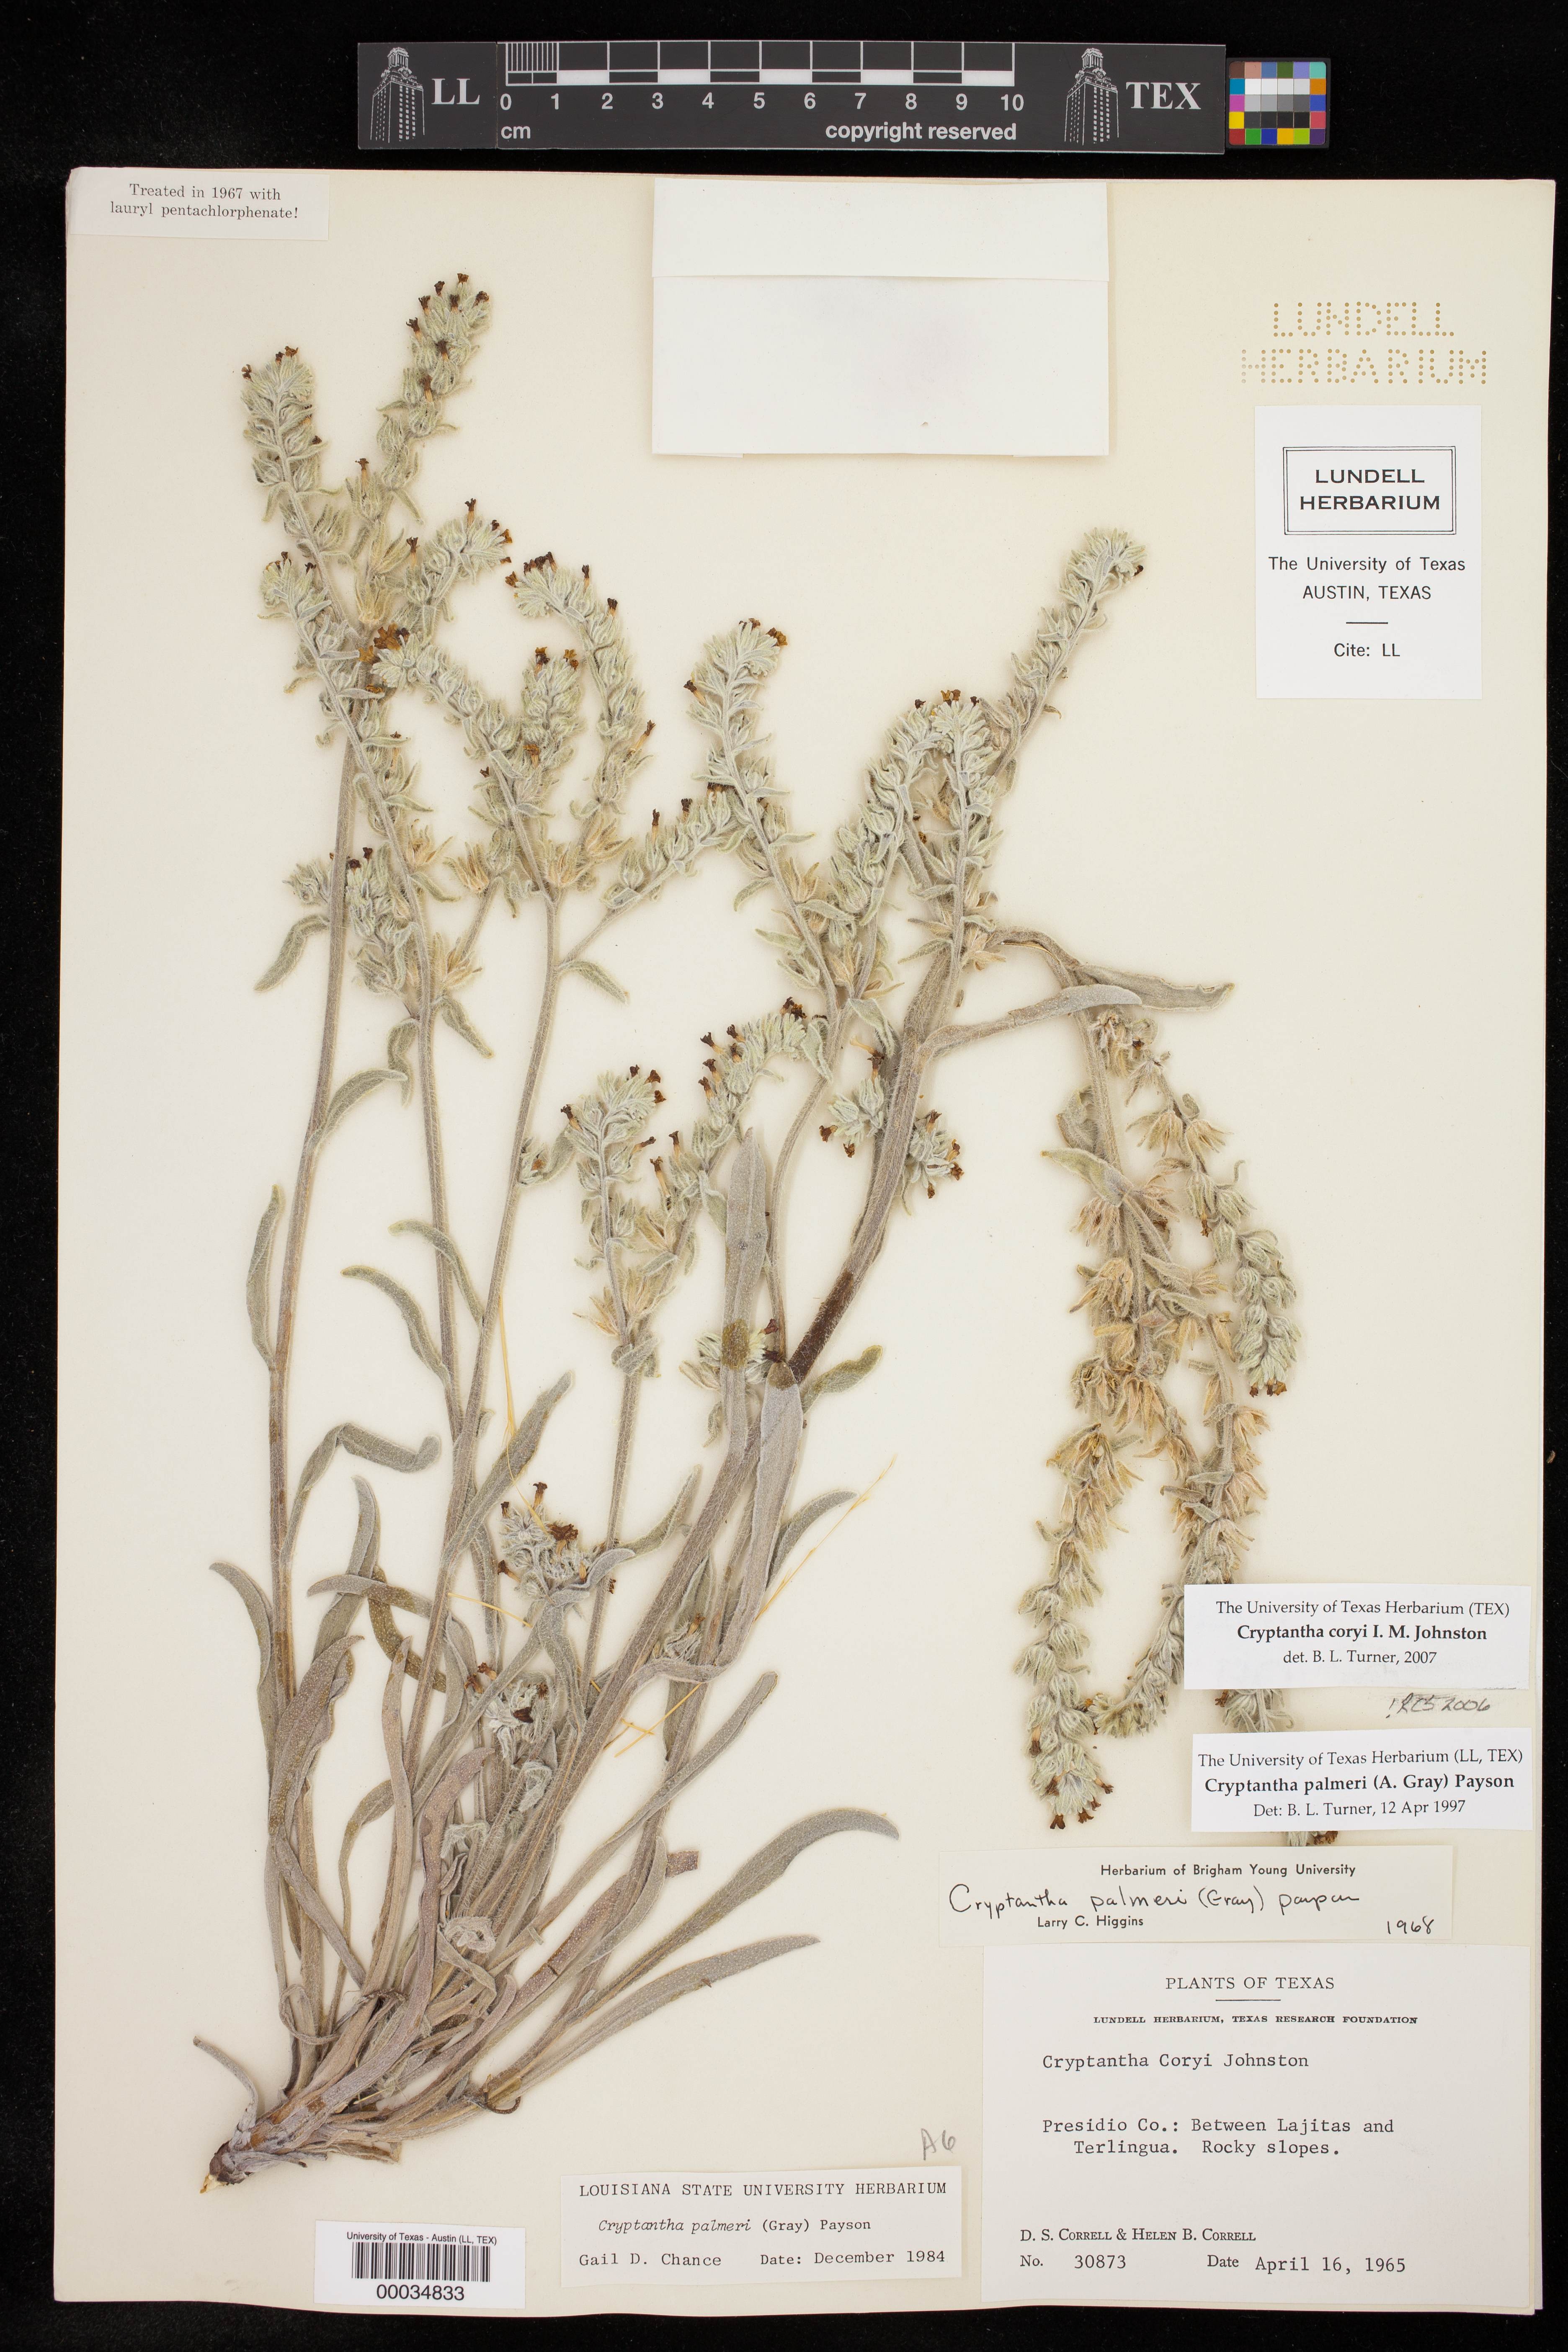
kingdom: Plantae
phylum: Tracheophyta
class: Magnoliopsida
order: Boraginales
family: Boraginaceae
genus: Oreocarya
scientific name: Oreocarya palmeri
